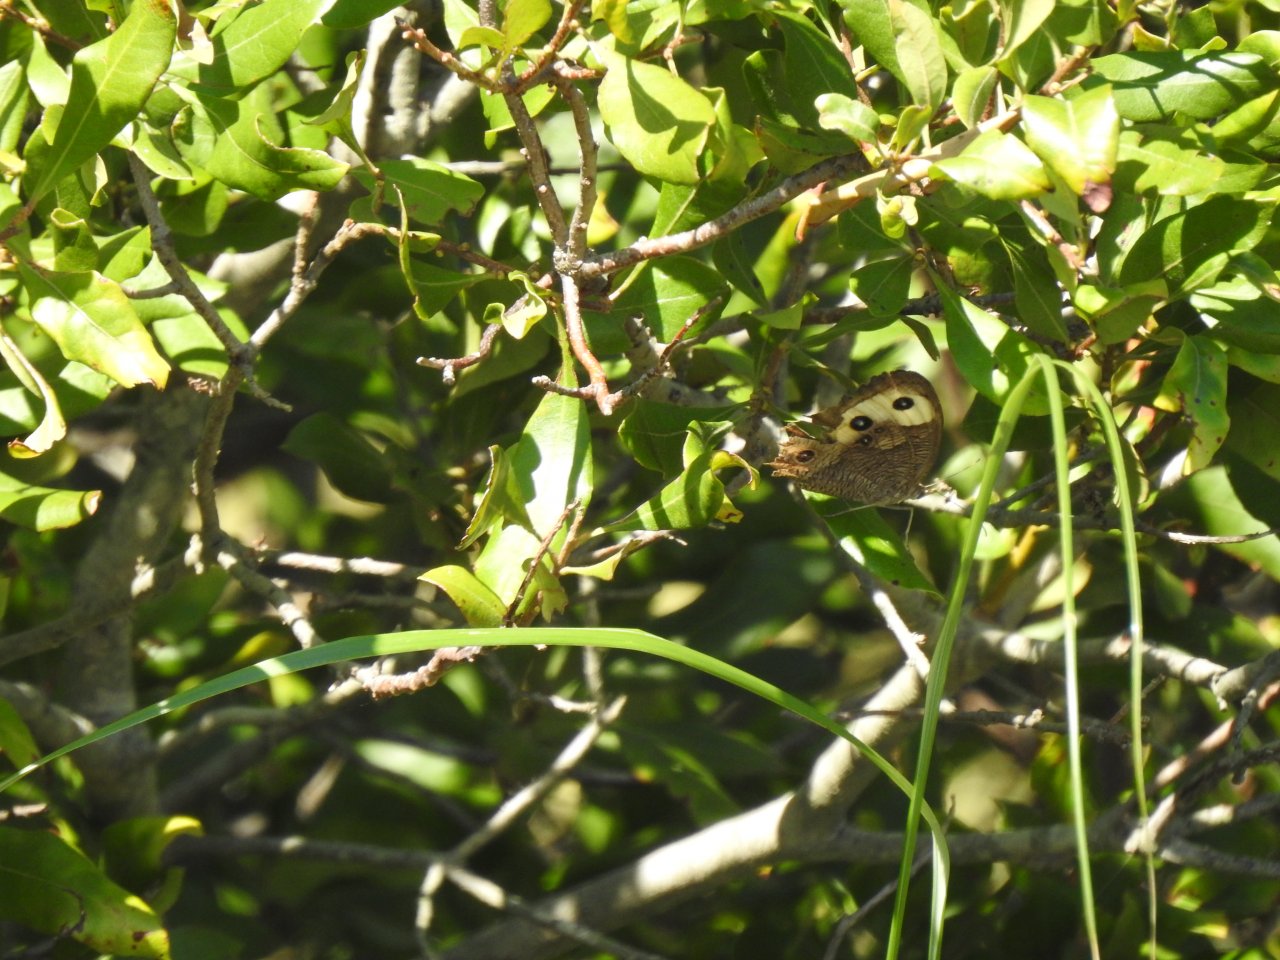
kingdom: Animalia
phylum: Arthropoda
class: Insecta
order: Lepidoptera
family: Nymphalidae
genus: Cercyonis
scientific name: Cercyonis pegala
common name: Common Wood-Nymph
